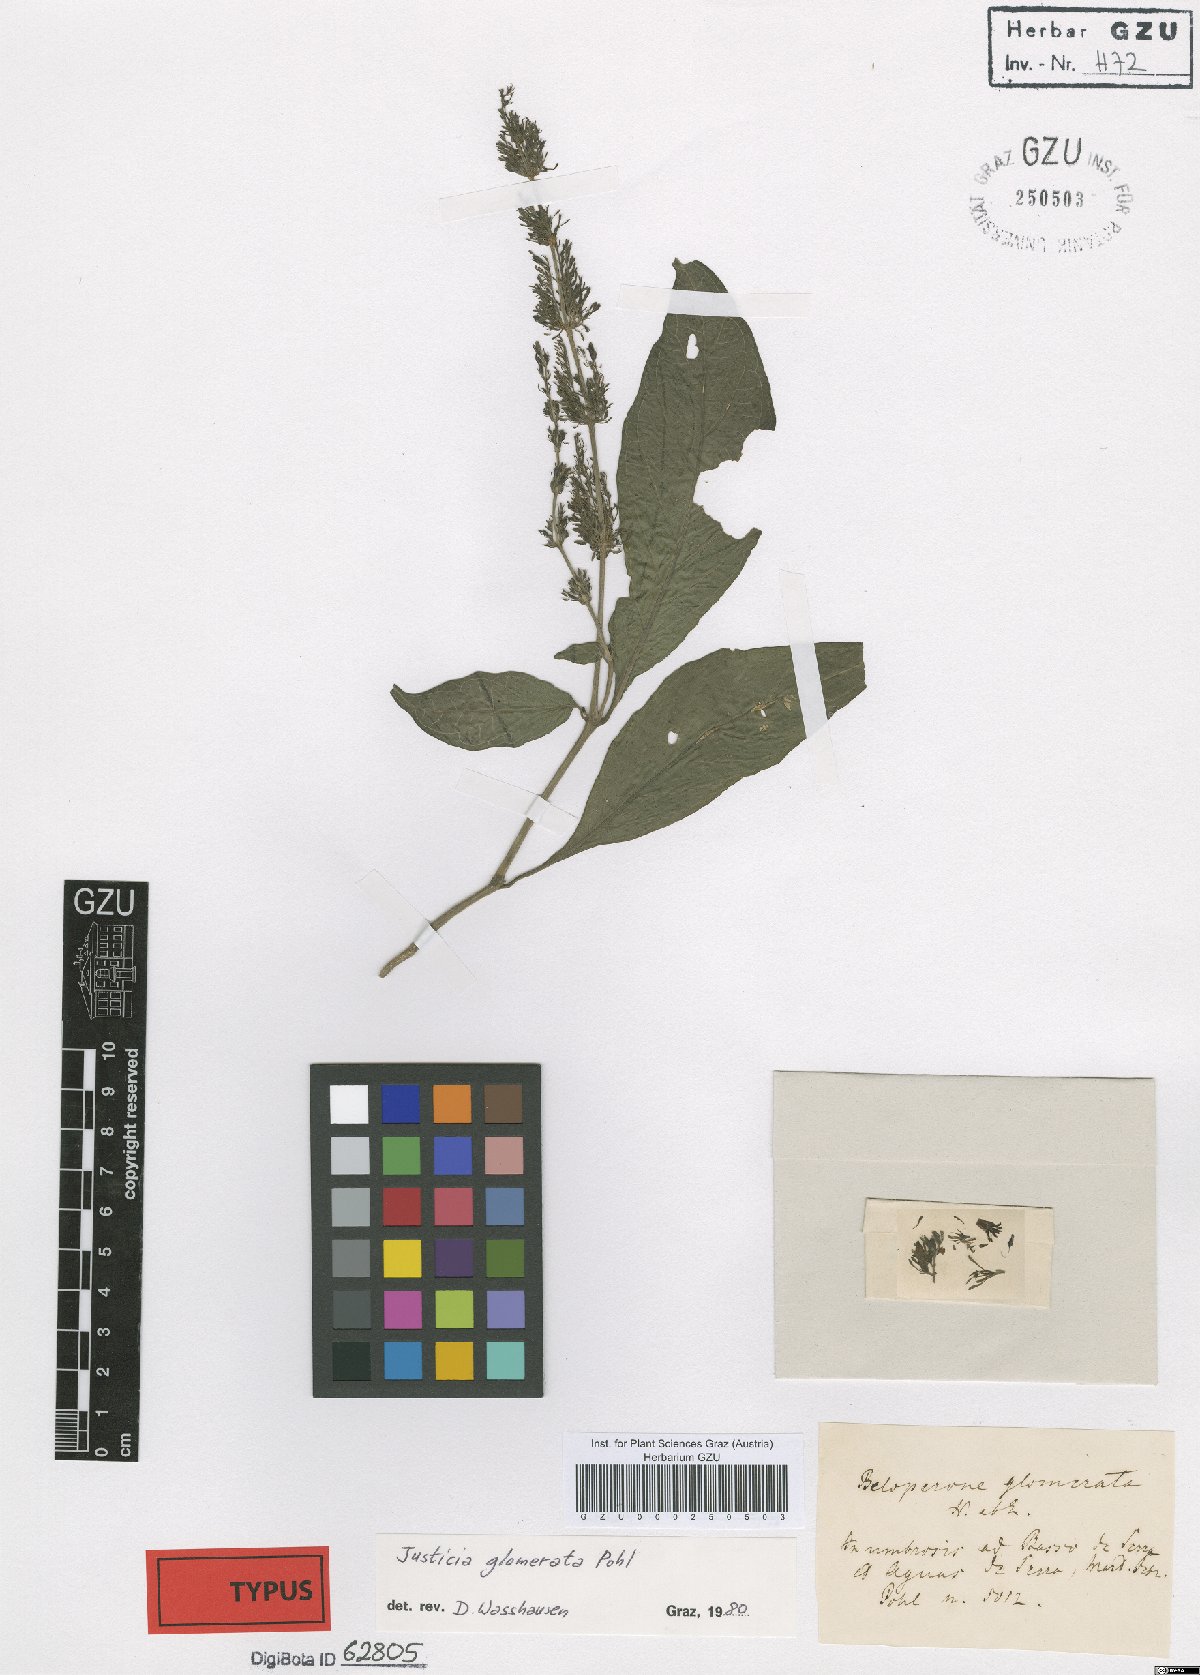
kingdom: Plantae
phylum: Tracheophyta
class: Magnoliopsida
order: Lamiales
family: Acanthaceae
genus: Justicia
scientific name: Justicia wasshauseniana
